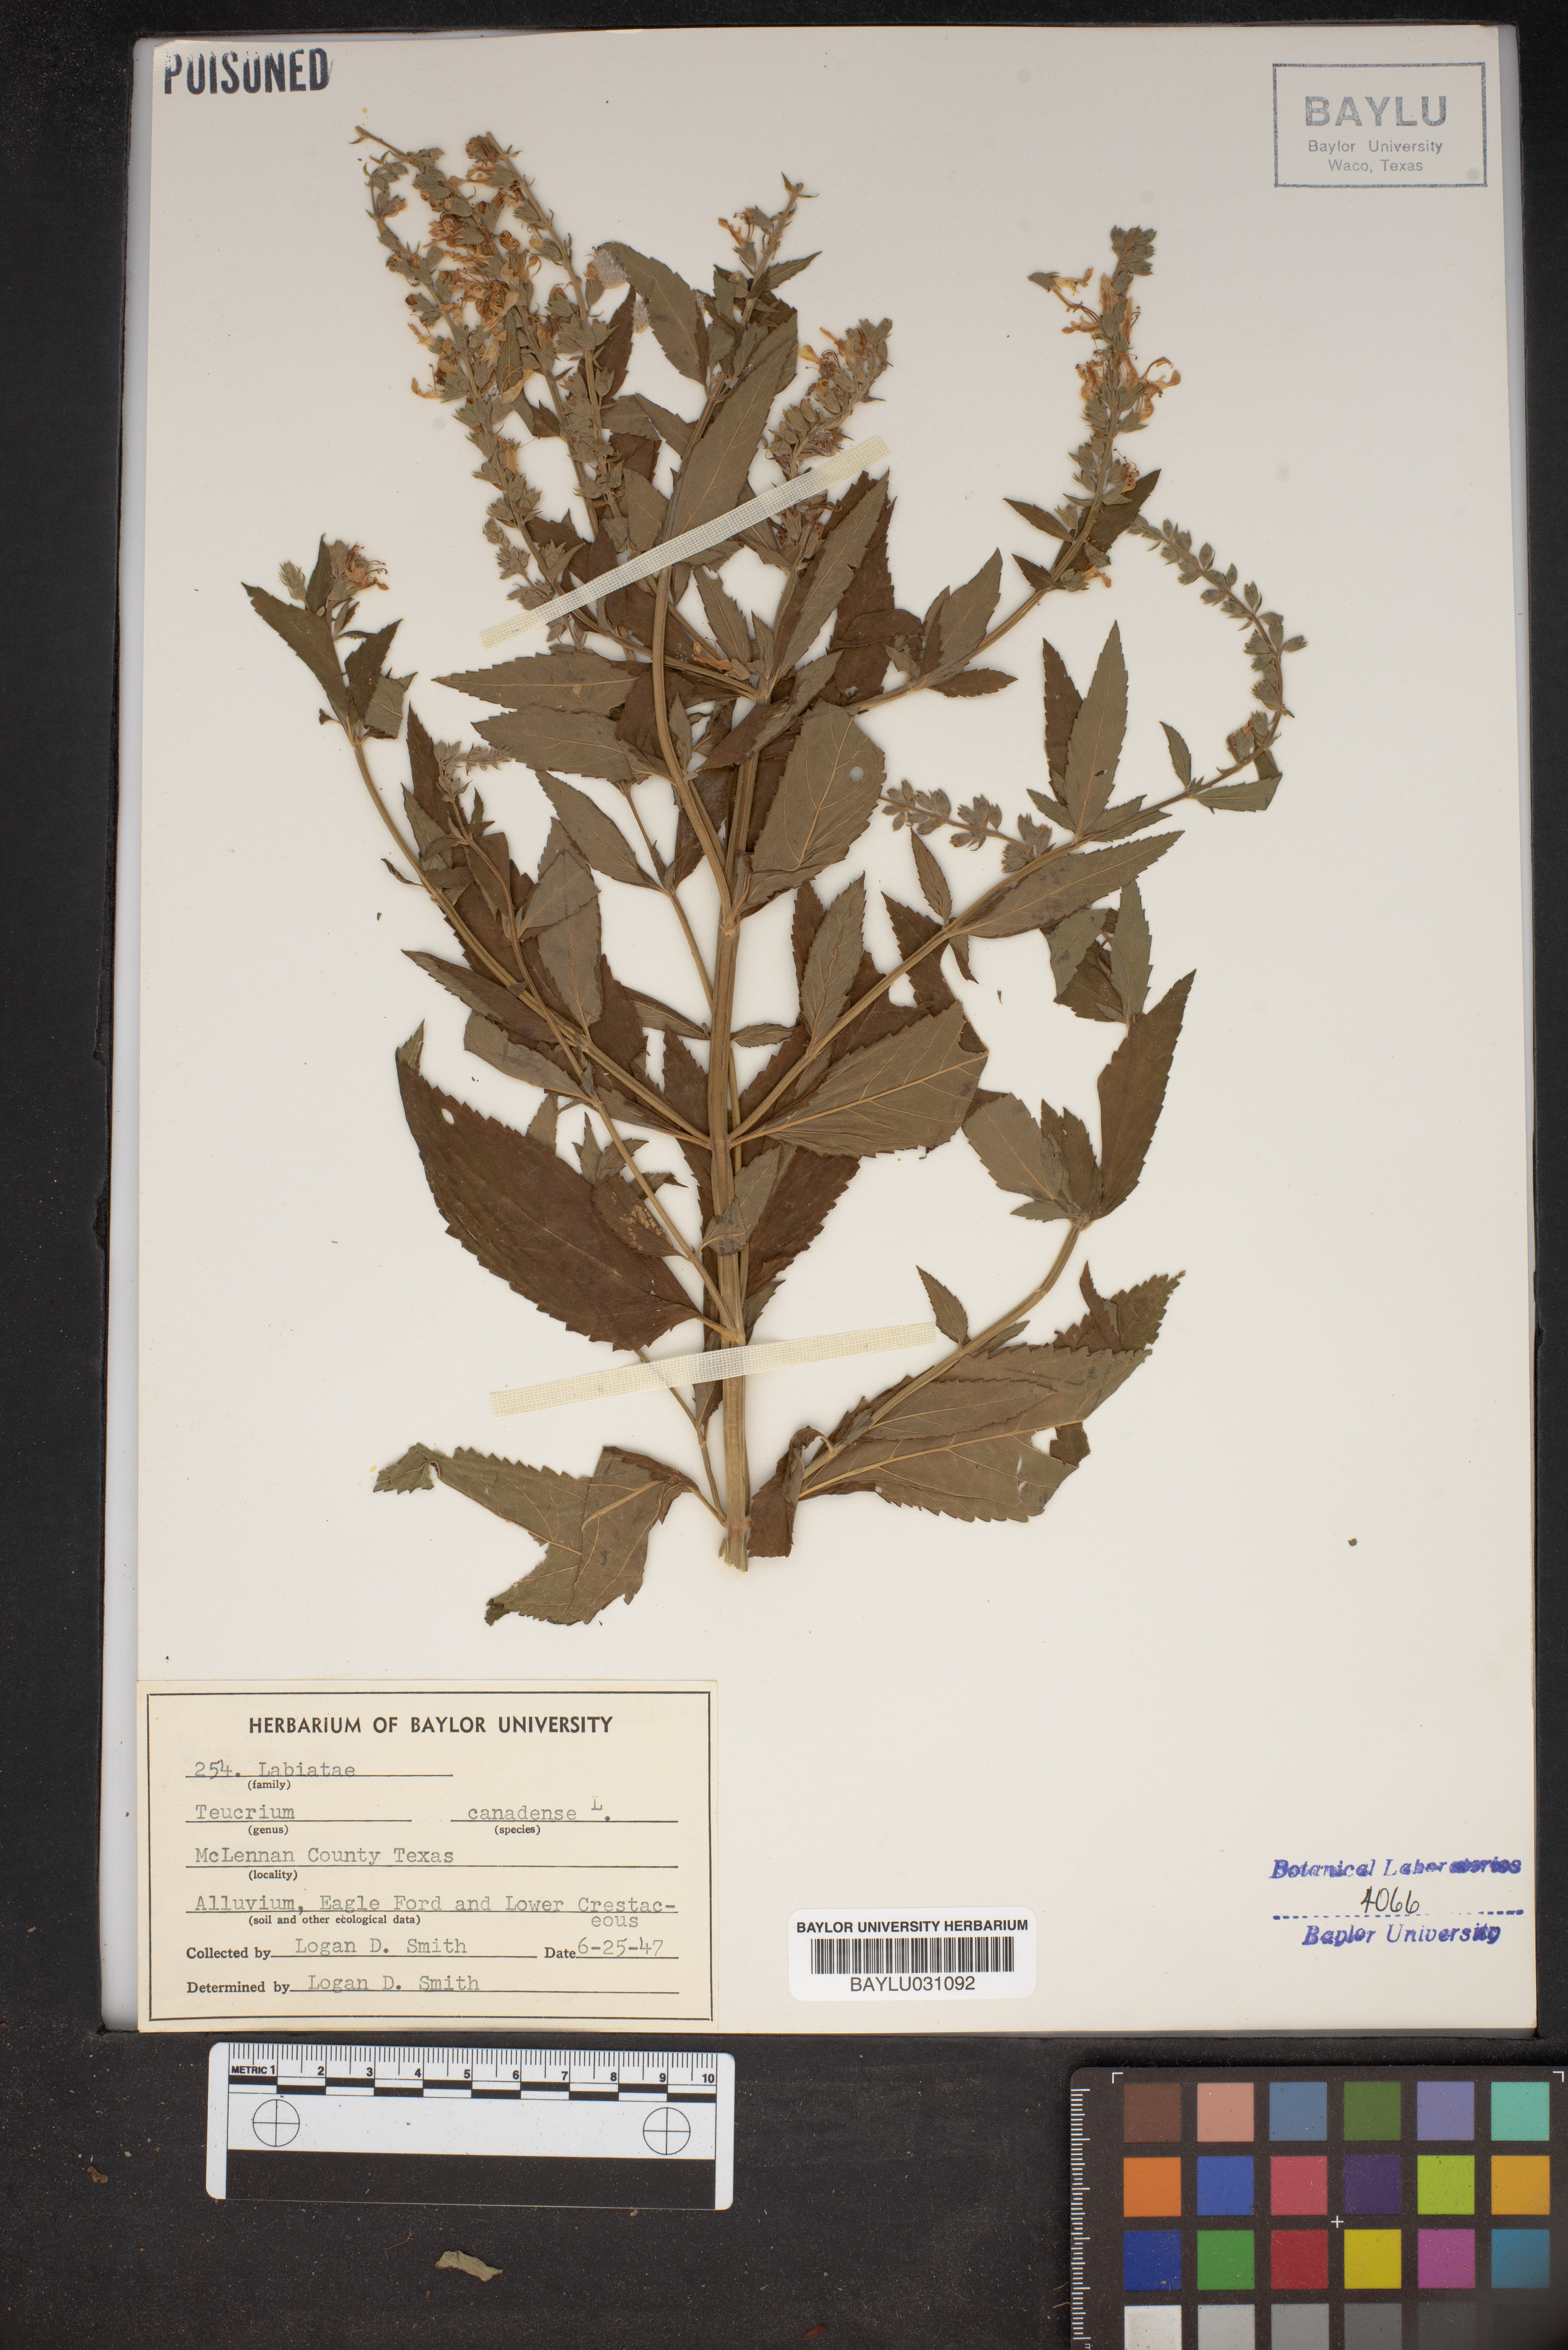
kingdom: Plantae
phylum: Tracheophyta
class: Magnoliopsida
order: Lamiales
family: Lamiaceae
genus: Teucrium
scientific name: Teucrium canadense
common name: American germander
